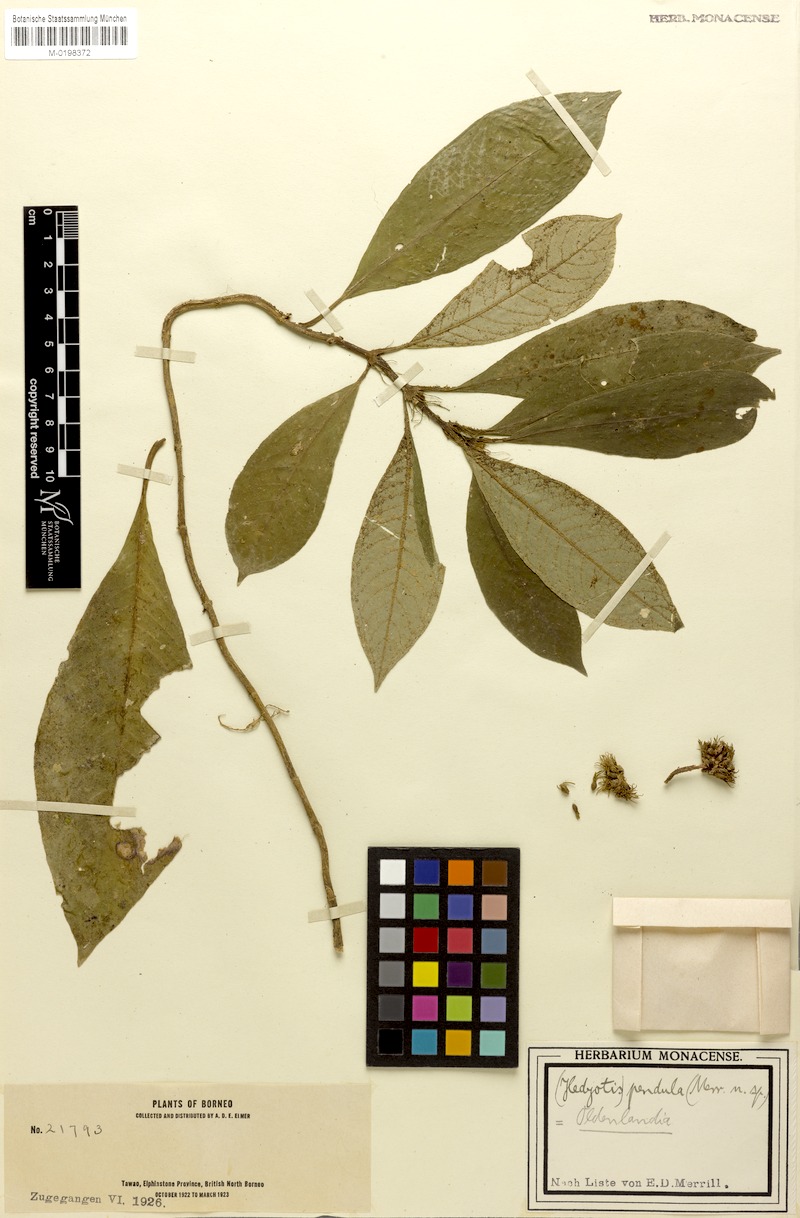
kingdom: Plantae
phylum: Tracheophyta
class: Magnoliopsida
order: Gentianales
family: Rubiaceae
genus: Cyanoneuron
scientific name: Cyanoneuron pubescens
